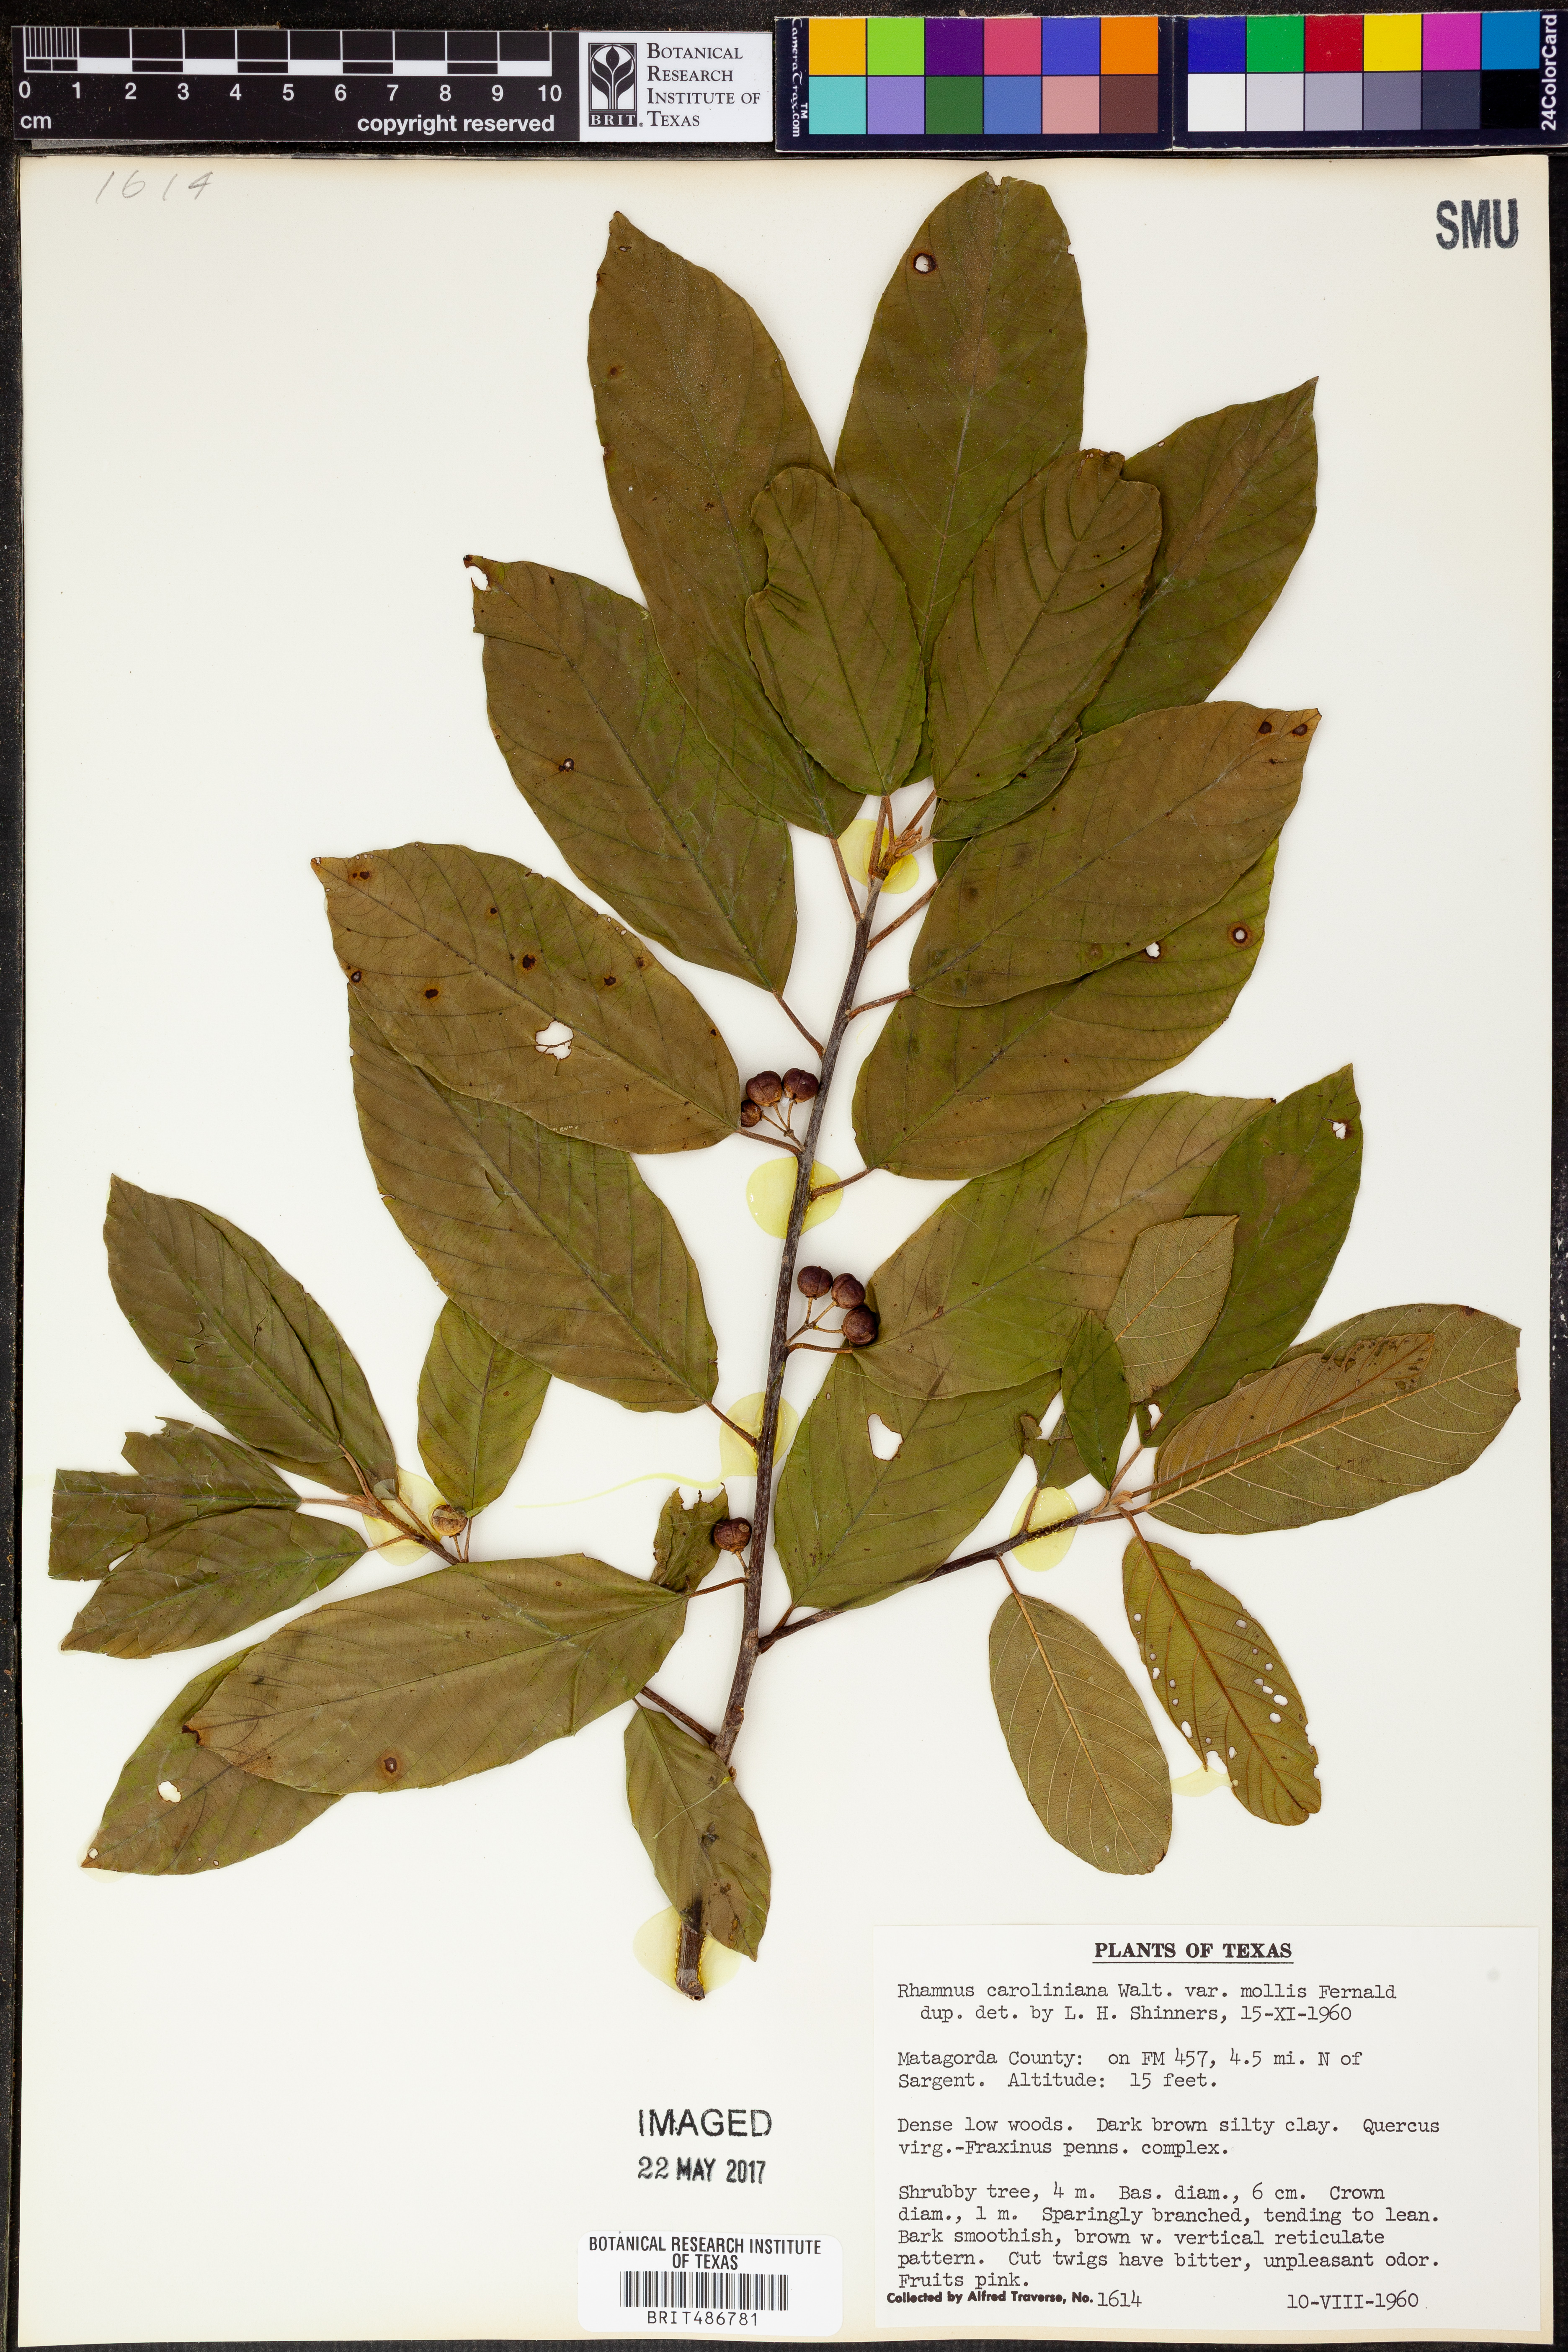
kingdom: Plantae
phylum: Tracheophyta
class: Magnoliopsida
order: Rosales
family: Rhamnaceae
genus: Frangula
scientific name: Frangula caroliniana
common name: Carolina buckthorn
